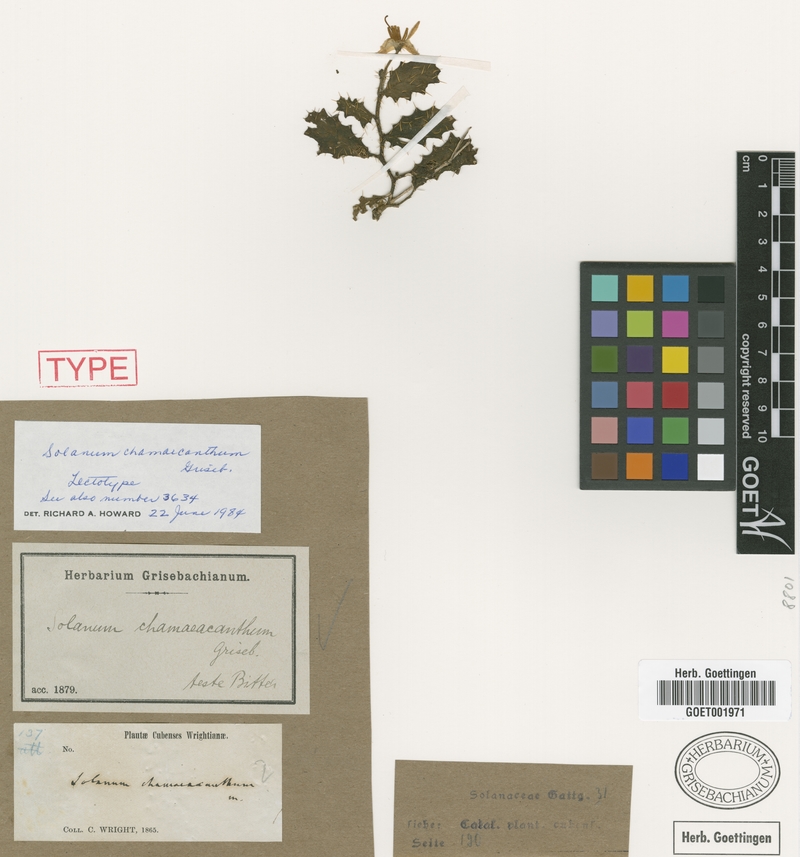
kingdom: Plantae
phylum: Tracheophyta
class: Magnoliopsida
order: Solanales
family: Solanaceae
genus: Solanum
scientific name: Solanum chamaeacanthum
